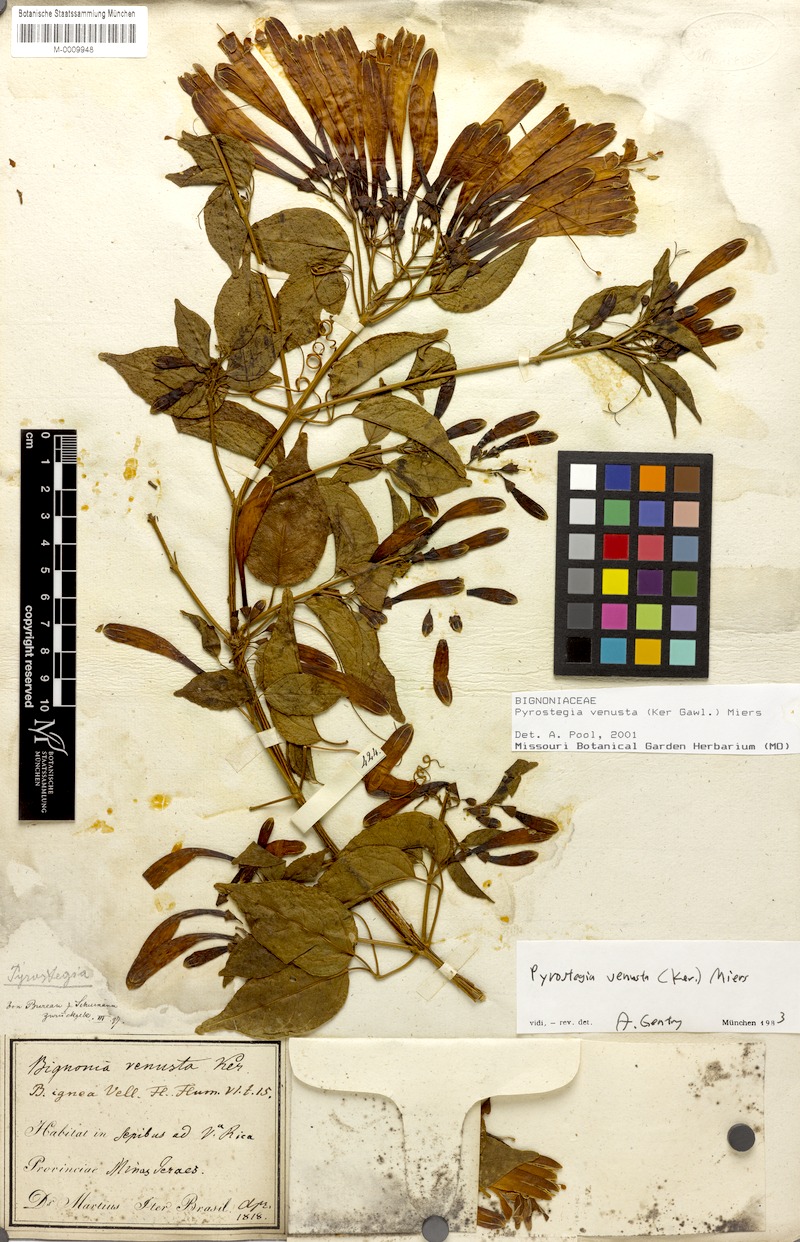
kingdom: Plantae
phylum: Tracheophyta
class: Magnoliopsida
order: Lamiales
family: Bignoniaceae
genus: Pyrostegia
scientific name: Pyrostegia venusta
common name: Flamevine
